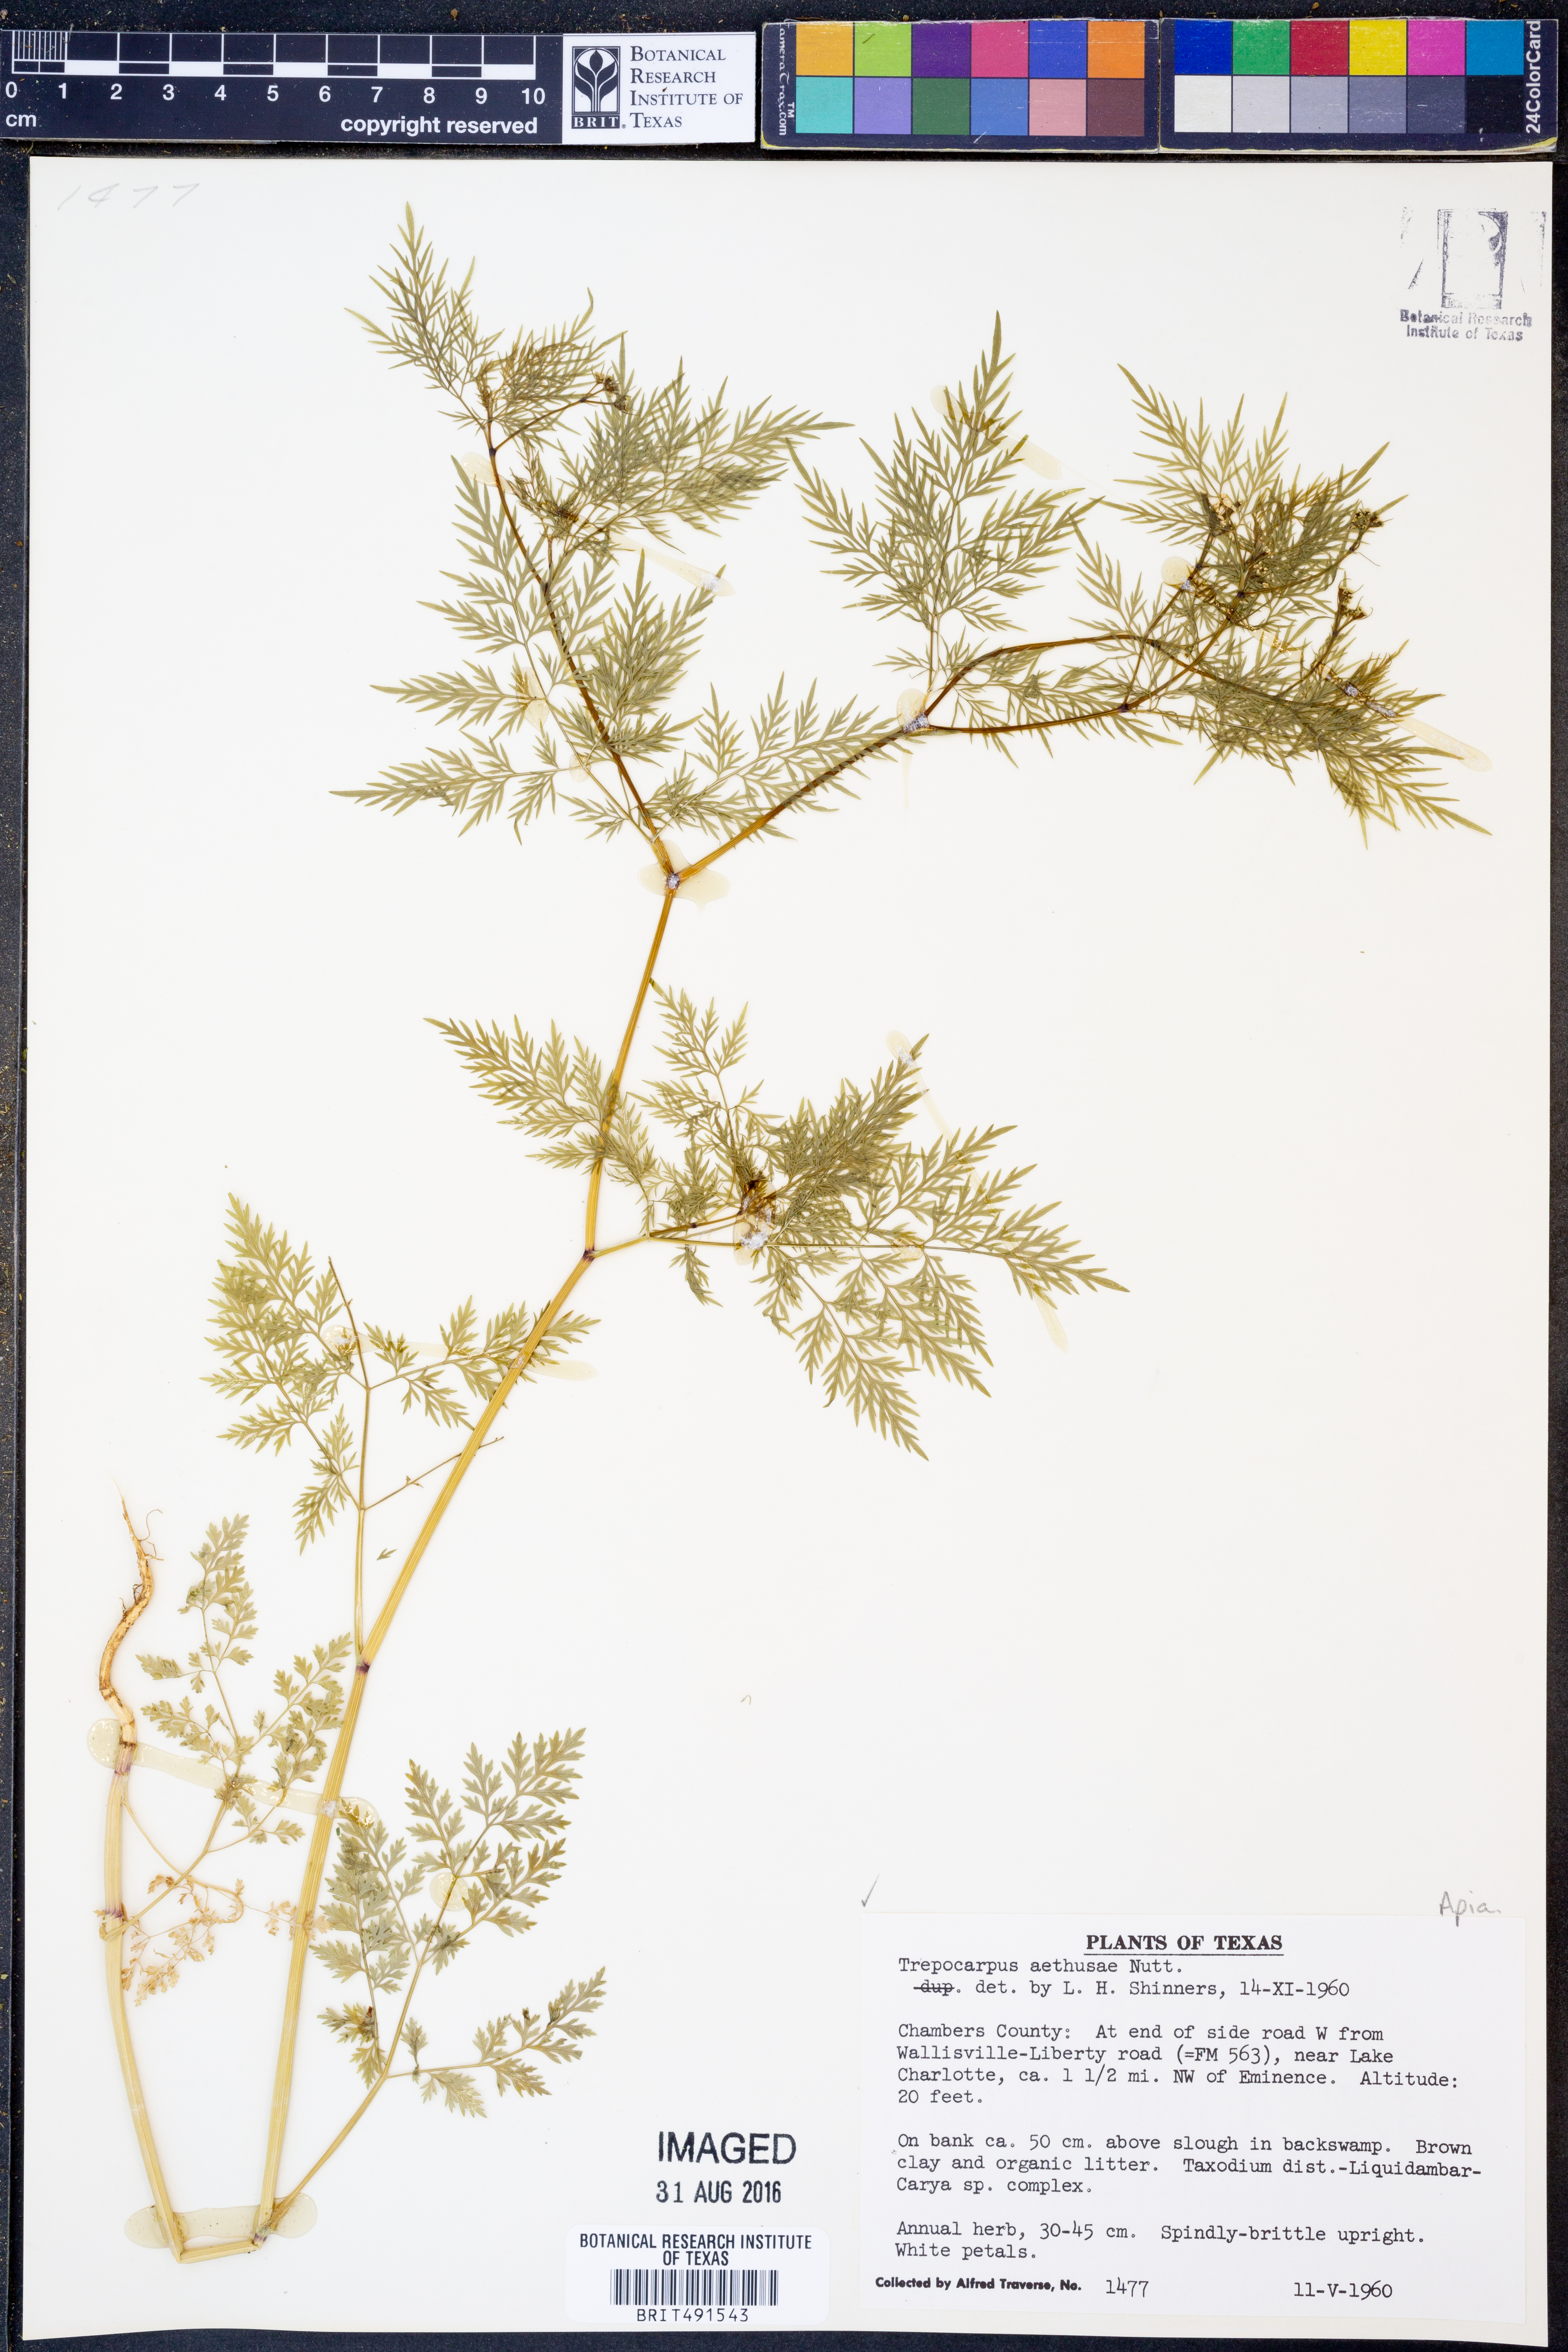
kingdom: Plantae
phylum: Tracheophyta
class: Magnoliopsida
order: Apiales
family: Apiaceae
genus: Trepocarpus
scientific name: Trepocarpus aethusae
